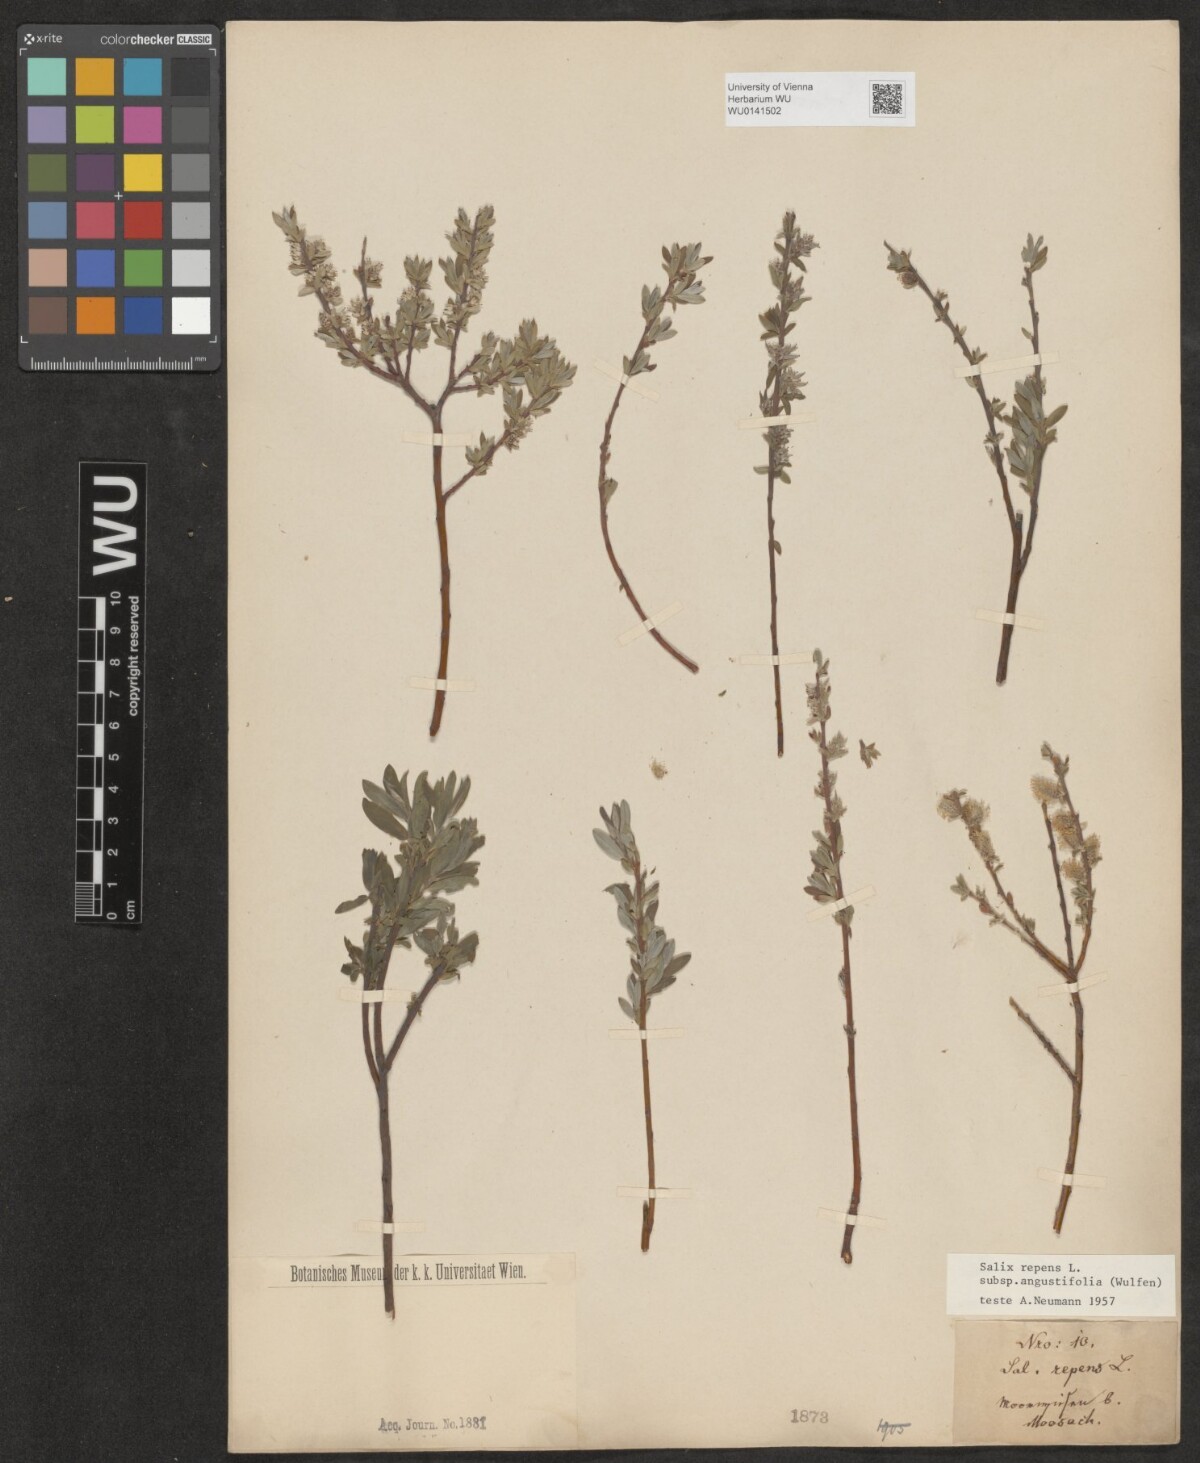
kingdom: Plantae
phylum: Tracheophyta
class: Magnoliopsida
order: Malpighiales
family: Salicaceae
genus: Salix
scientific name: Salix rosmarinifolia
